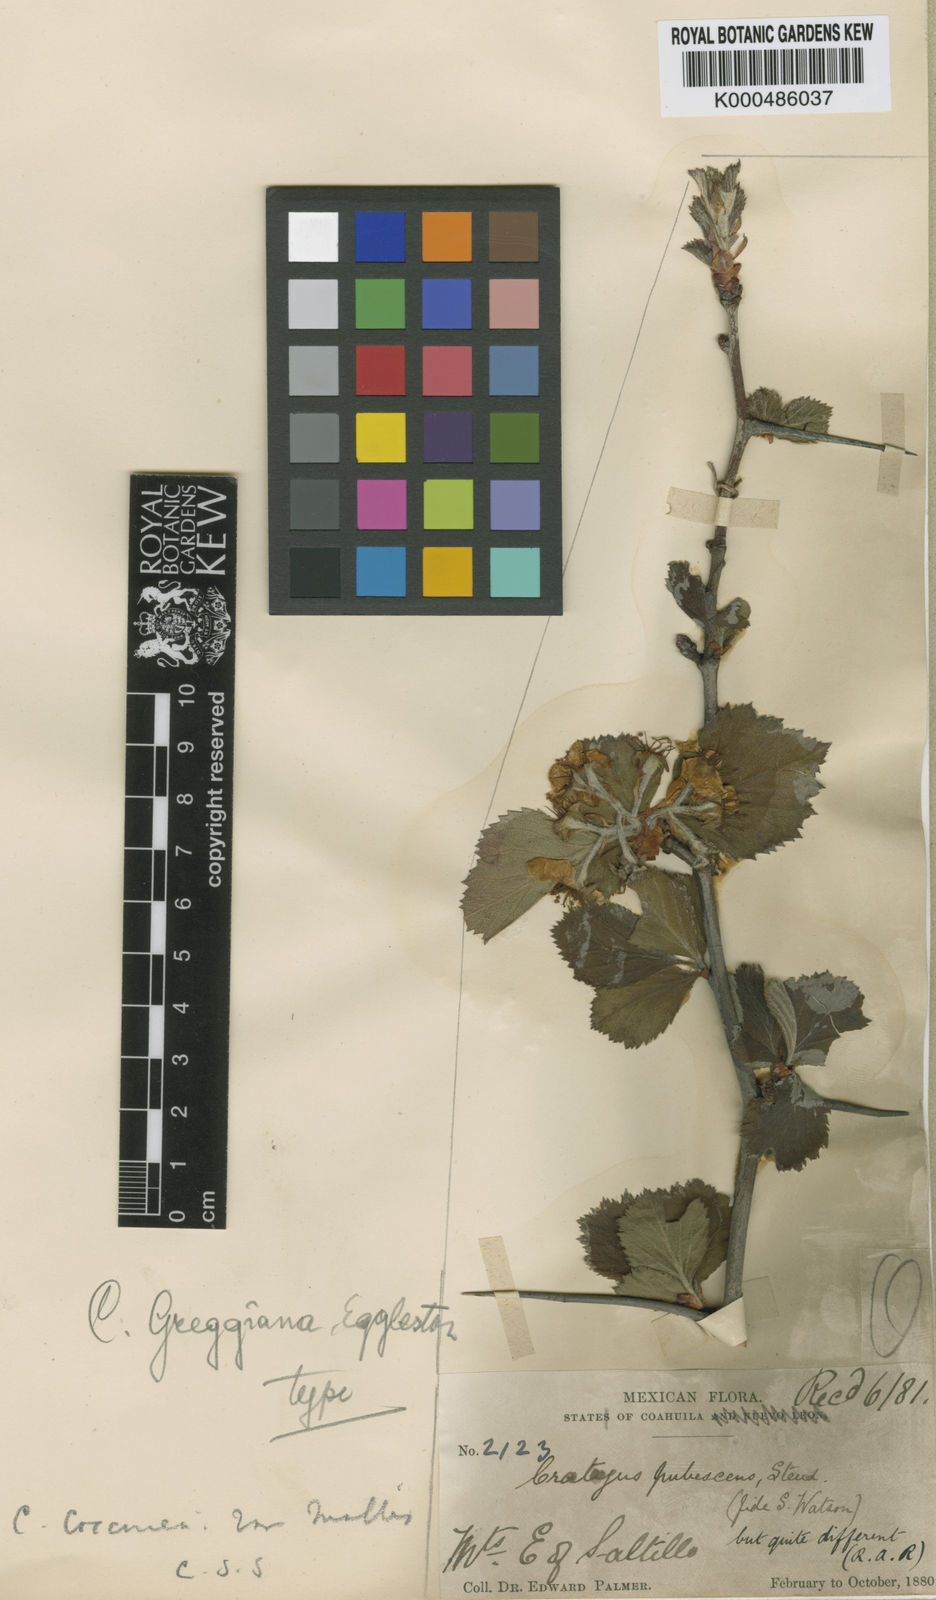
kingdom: Plantae
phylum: Tracheophyta
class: Magnoliopsida
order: Rosales
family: Rosaceae
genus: Crataegus
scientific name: Crataegus greggiana
